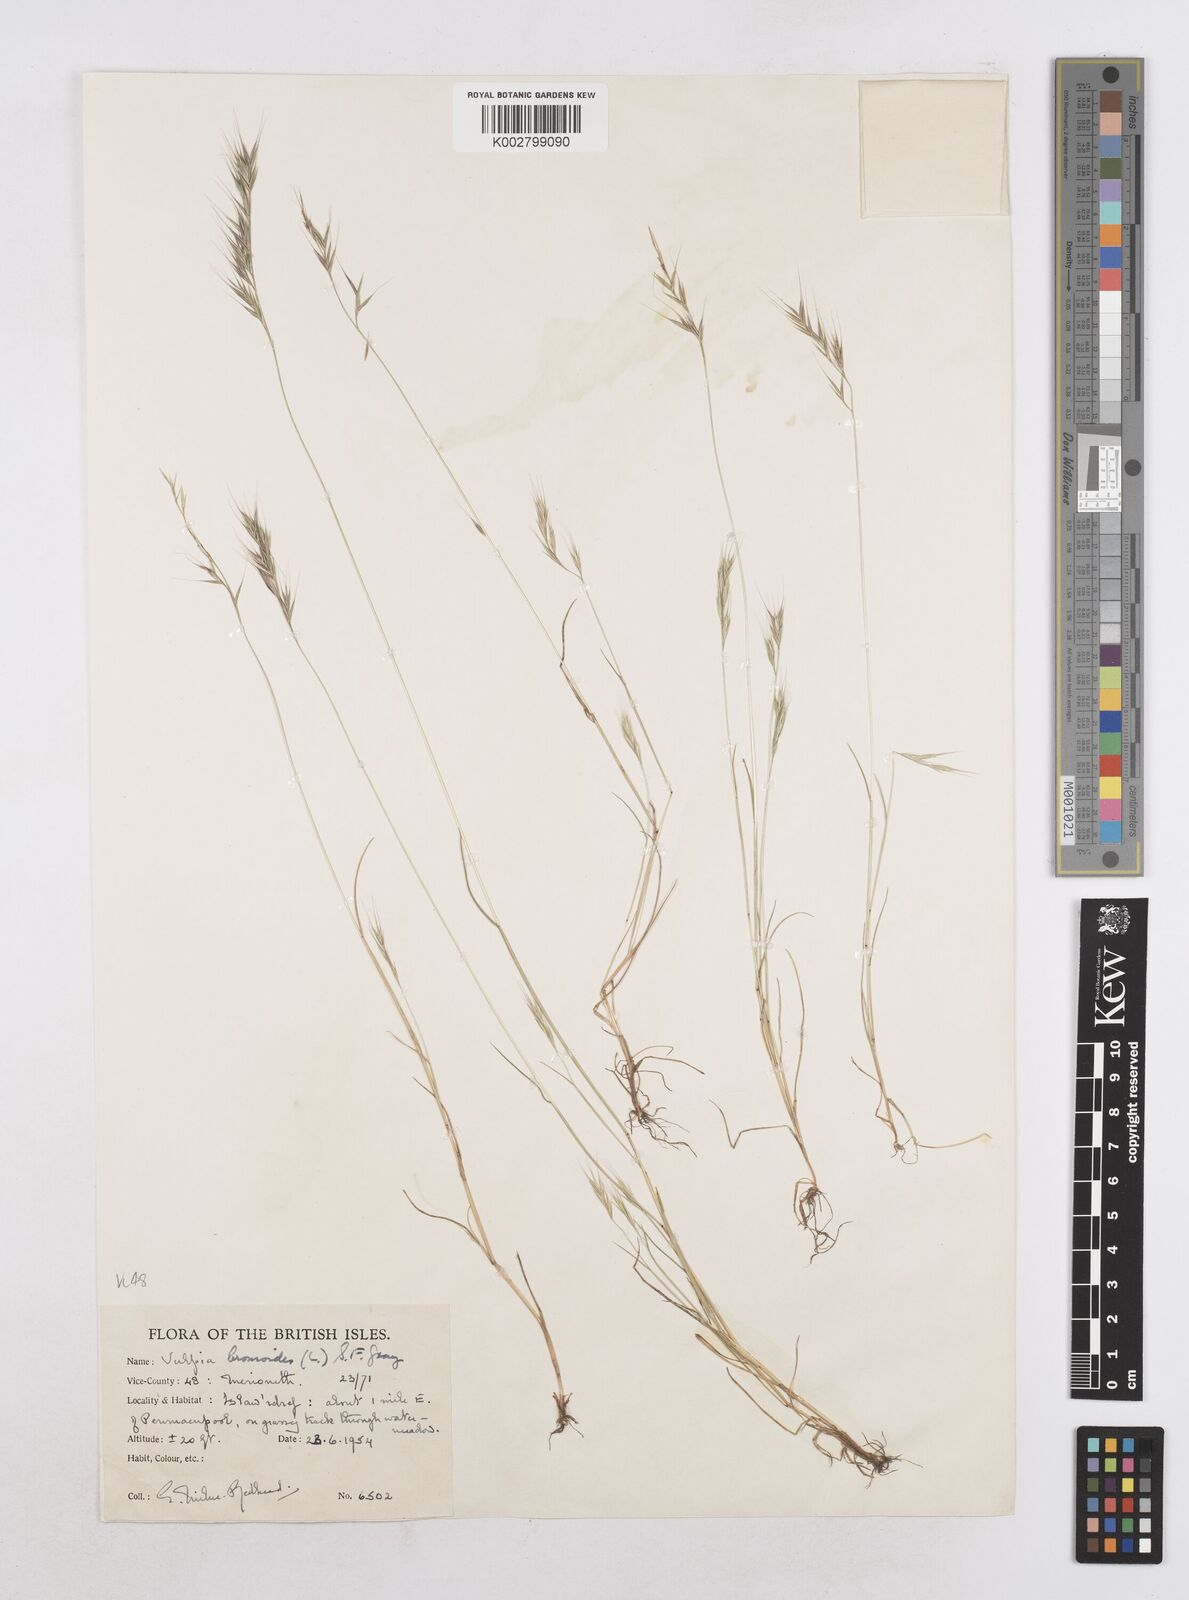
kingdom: Plantae
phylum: Tracheophyta
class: Liliopsida
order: Poales
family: Poaceae
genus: Festuca
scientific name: Festuca bromoides
